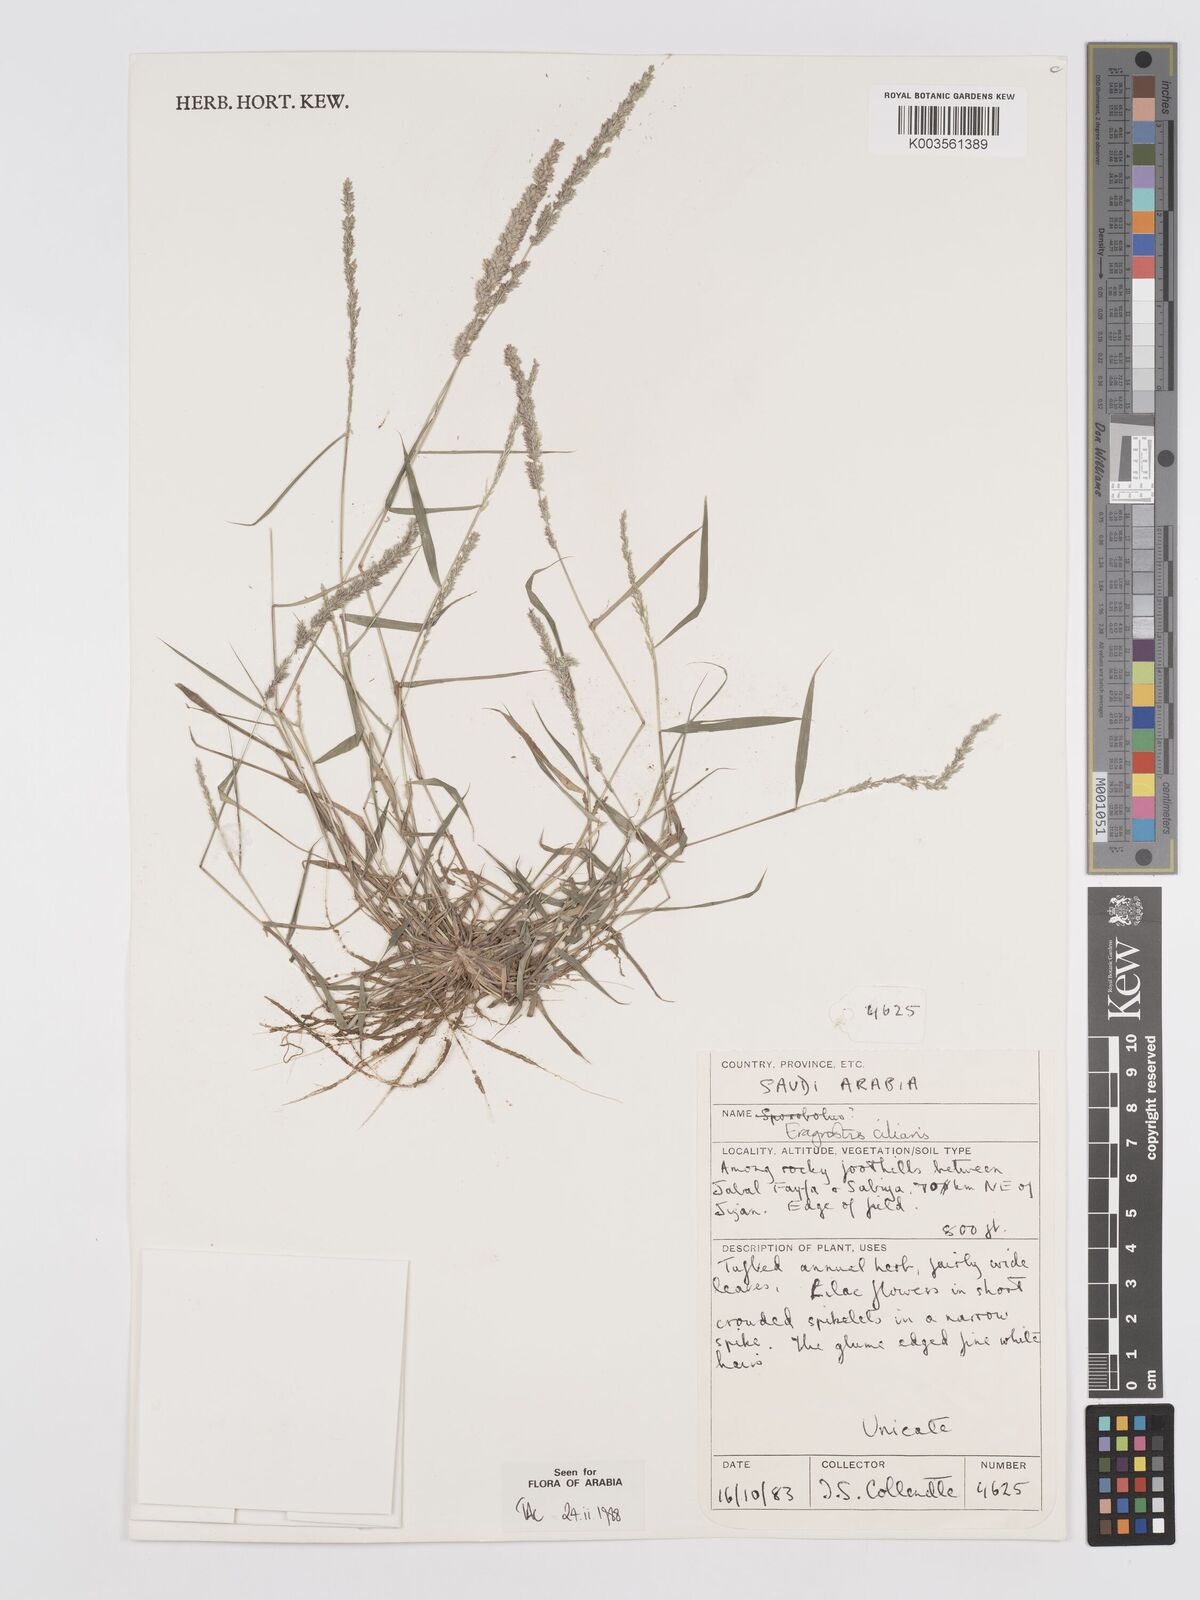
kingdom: Plantae
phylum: Tracheophyta
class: Liliopsida
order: Poales
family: Poaceae
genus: Eragrostis
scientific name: Eragrostis ciliaris
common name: Gophertail lovegrass
